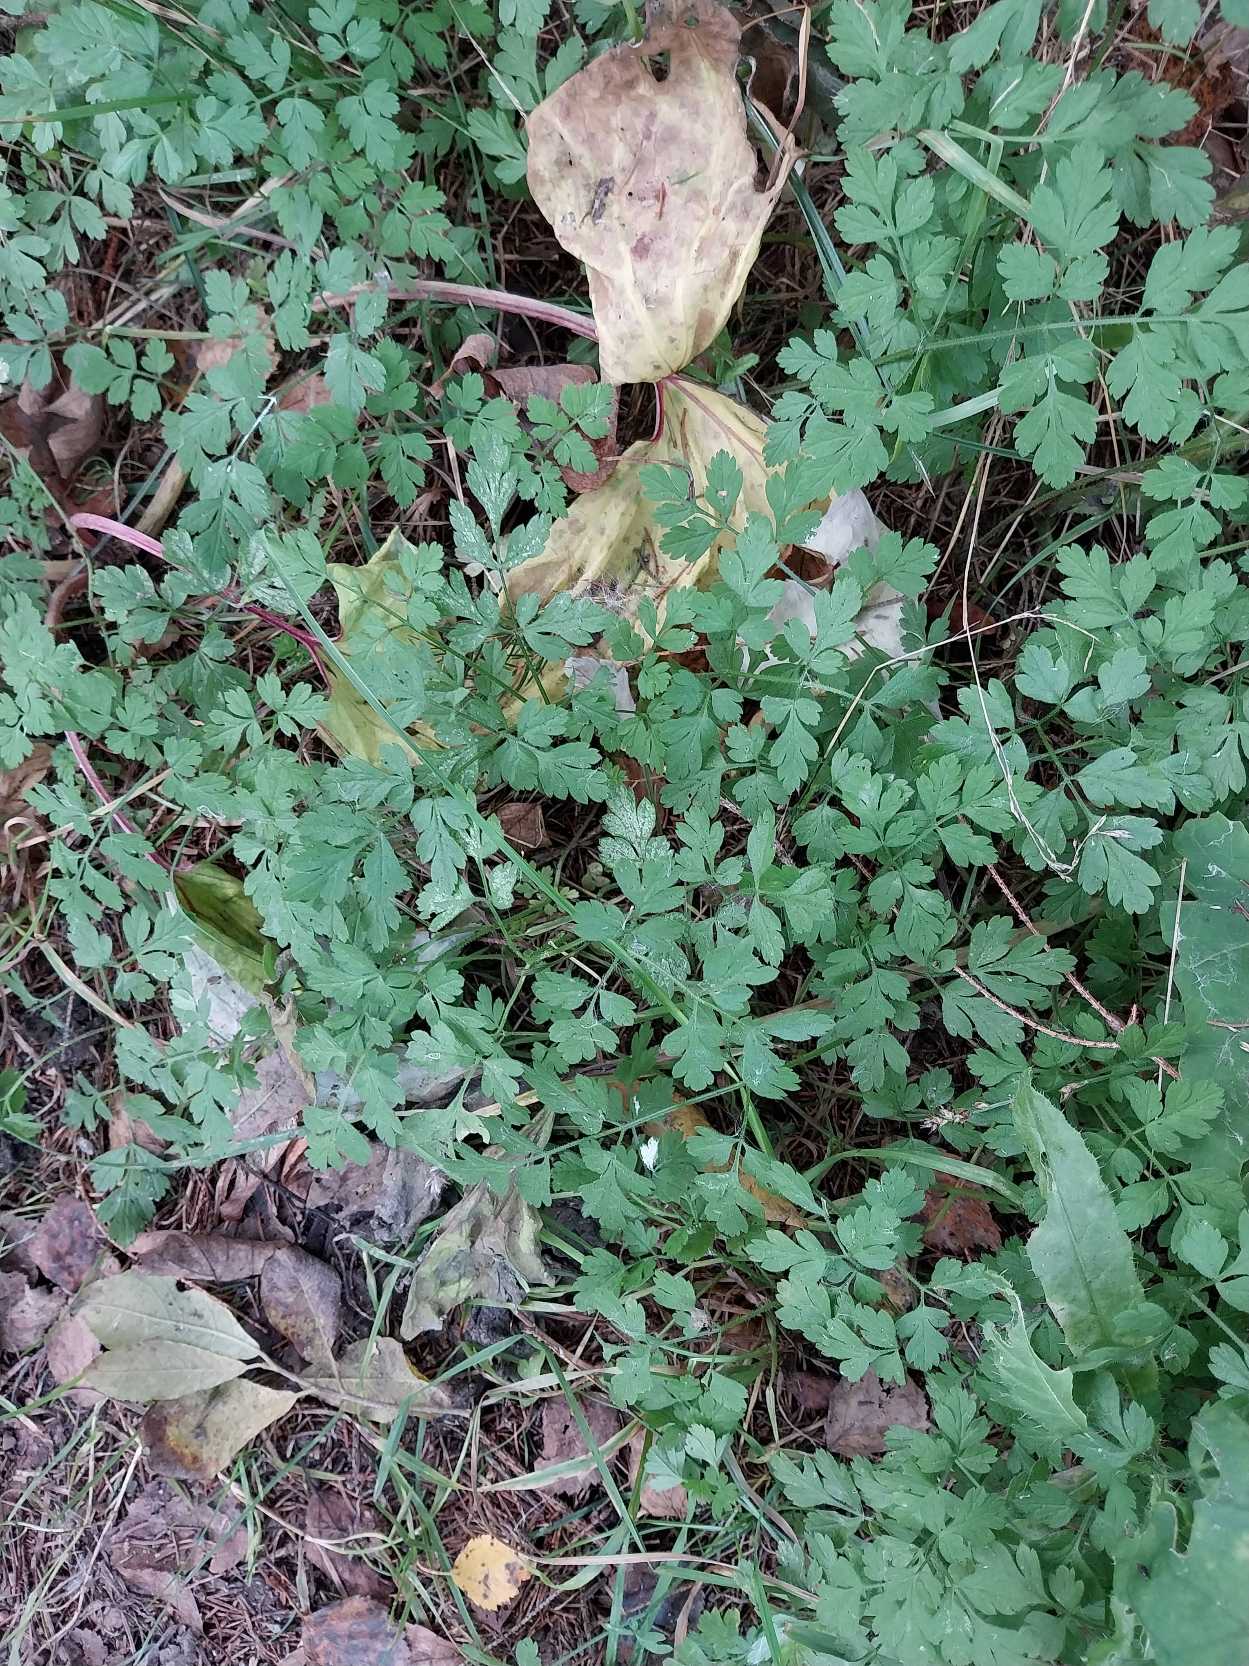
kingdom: Plantae
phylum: Tracheophyta
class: Magnoliopsida
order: Apiales
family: Apiaceae
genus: Chaerophyllum
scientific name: Chaerophyllum temulum
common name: Almindelig hulsvøb
